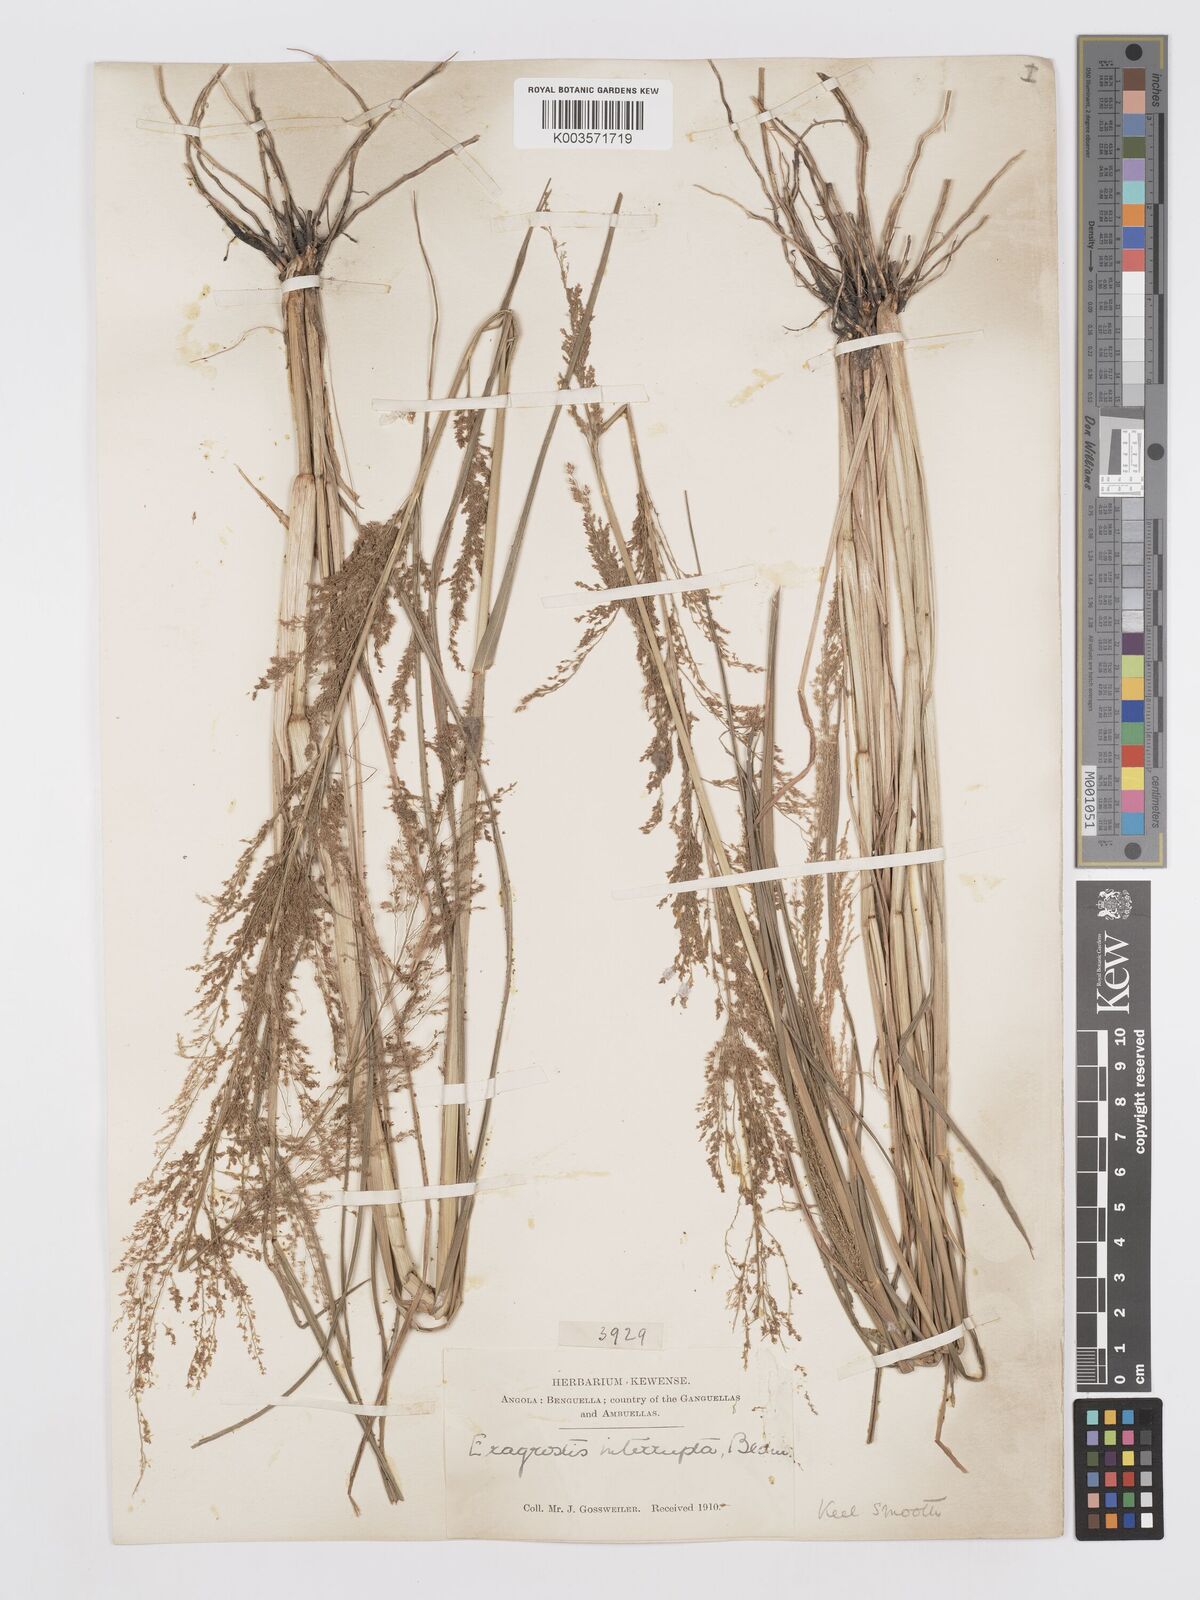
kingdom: Plantae
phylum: Tracheophyta
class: Liliopsida
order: Poales
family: Poaceae
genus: Eragrostis
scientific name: Eragrostis japonica
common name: Pond lovegrass
